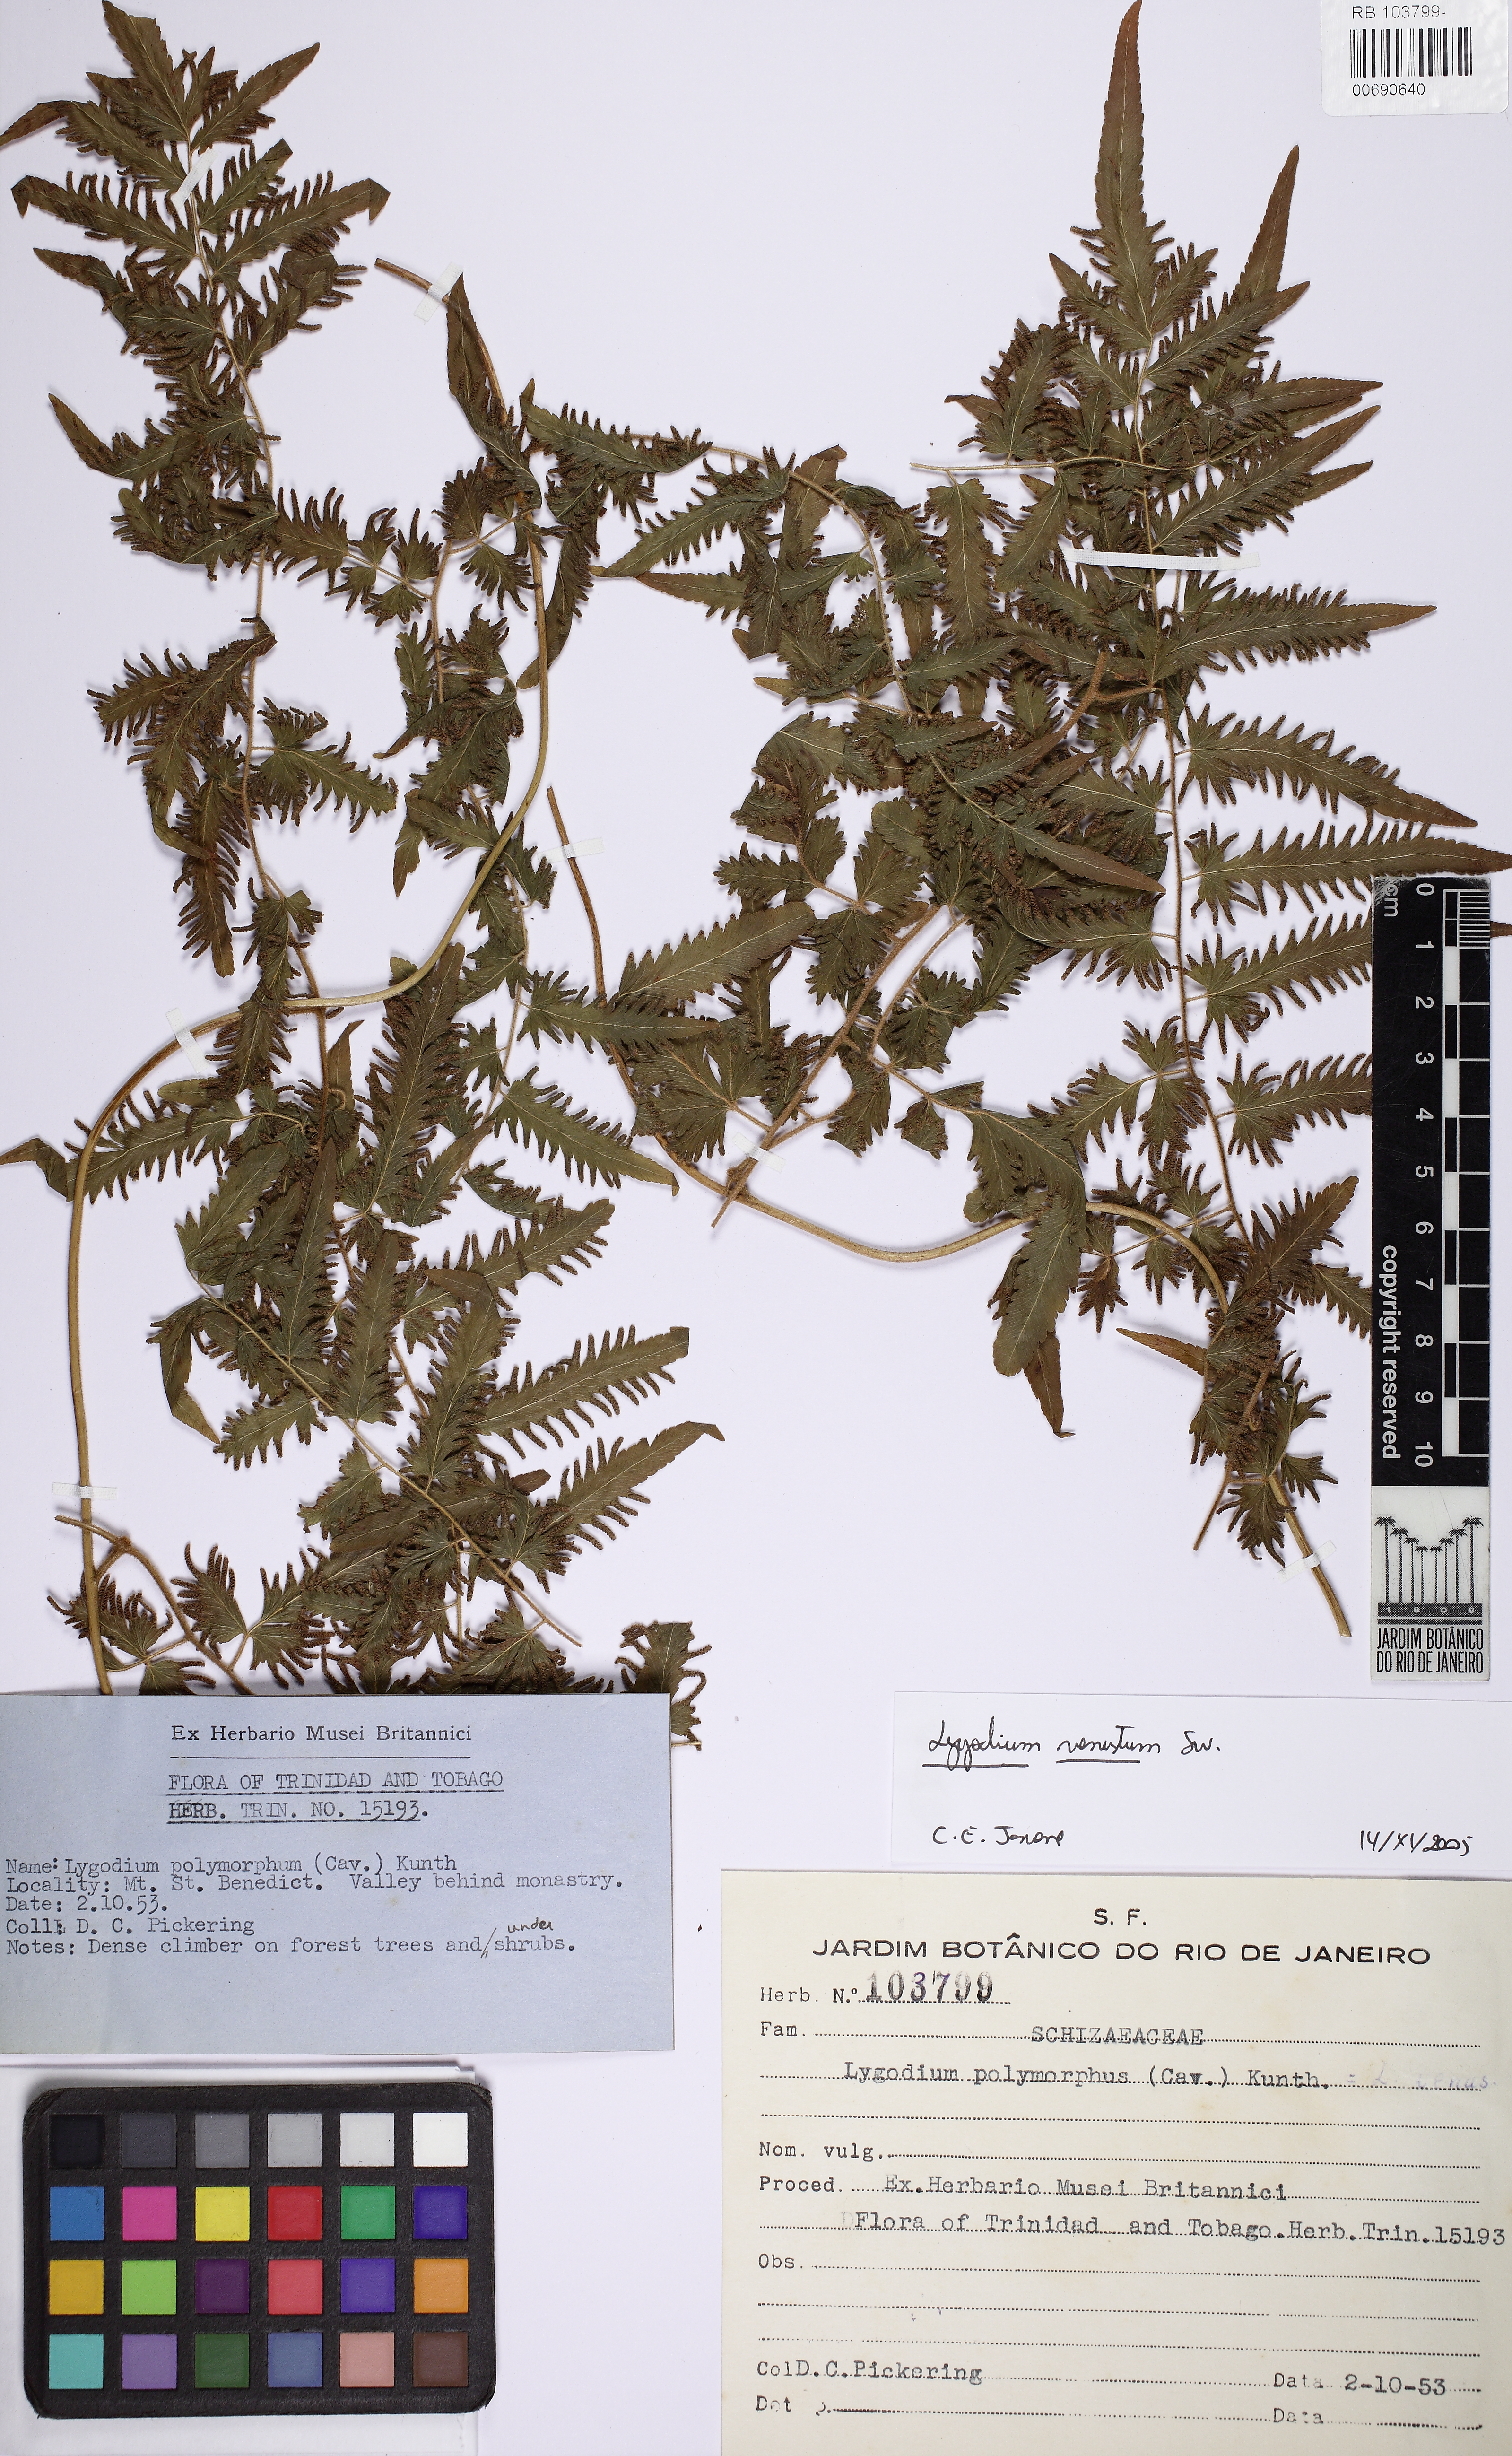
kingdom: Plantae
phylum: Tracheophyta
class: Polypodiopsida
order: Schizaeales
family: Lygodiaceae
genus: Lygodium
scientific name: Lygodium venustum
